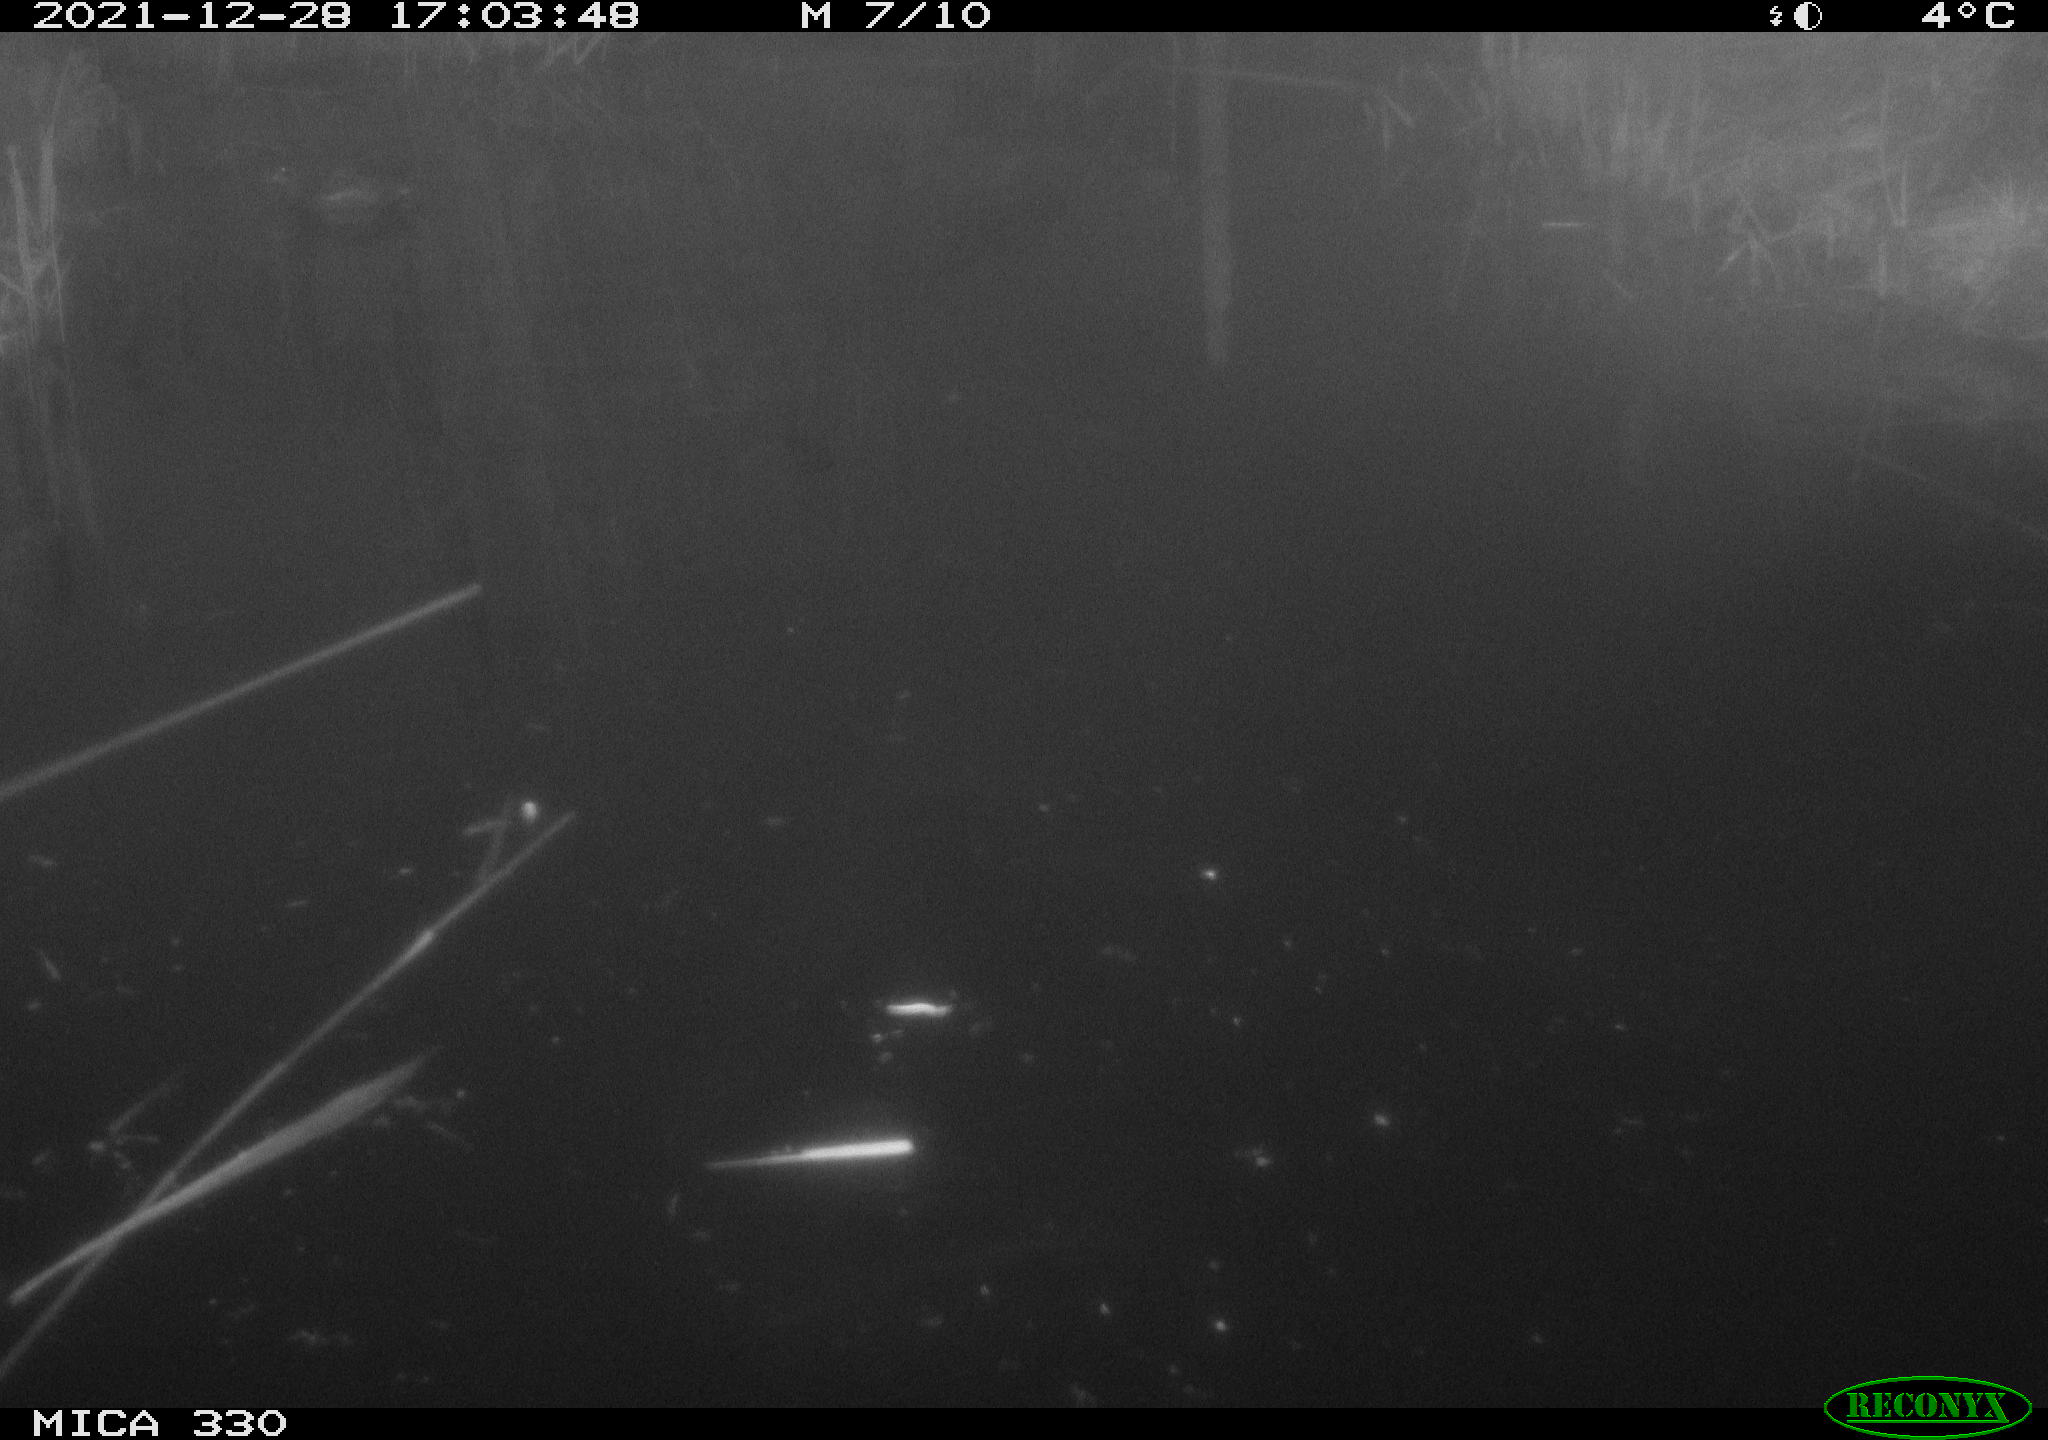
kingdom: Animalia
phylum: Chordata
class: Aves
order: Gruiformes
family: Rallidae
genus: Gallinula
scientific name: Gallinula chloropus
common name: Common moorhen
